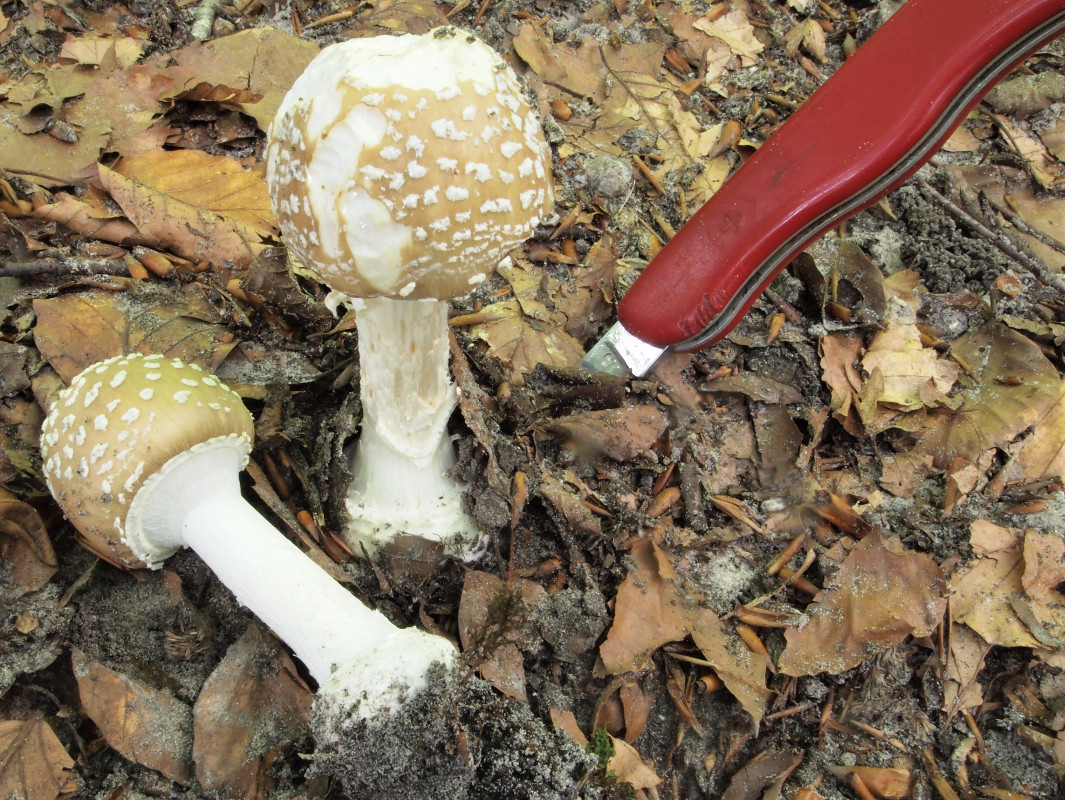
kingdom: Fungi
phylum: Basidiomycota
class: Agaricomycetes
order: Agaricales
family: Amanitaceae
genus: Amanita
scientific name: Amanita pantherina
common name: panter-fluesvamp
